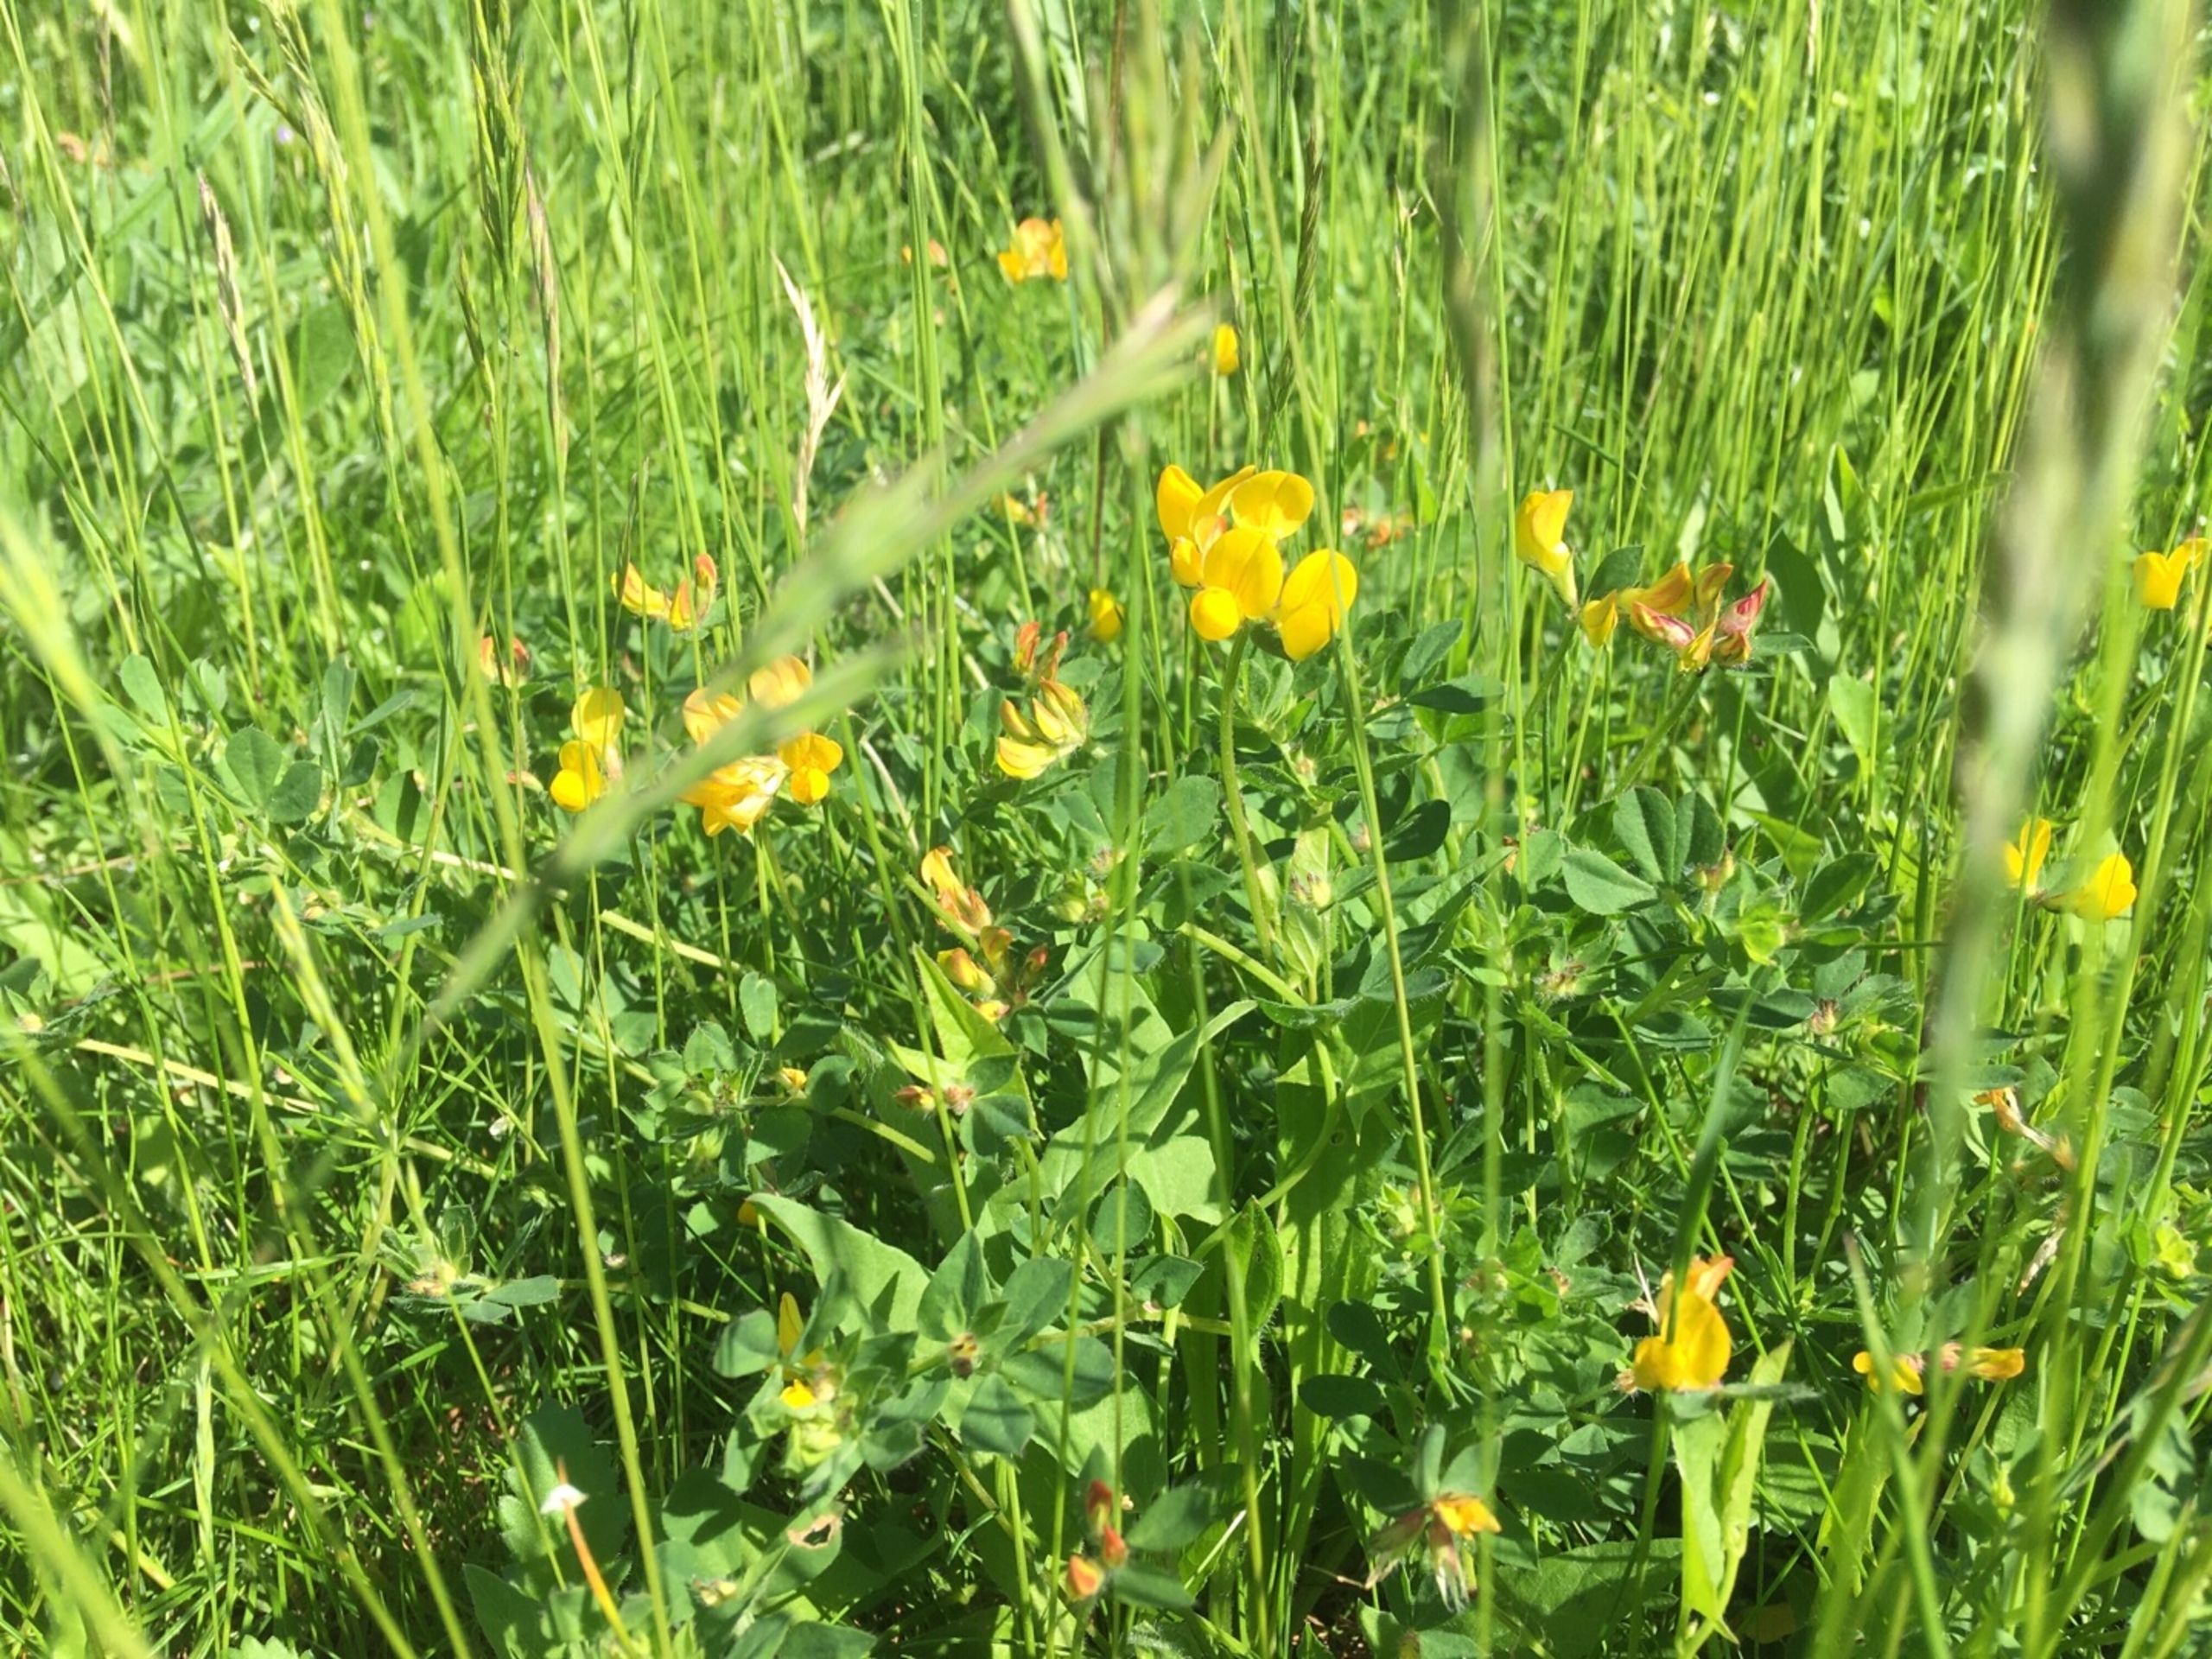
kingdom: Plantae
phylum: Tracheophyta
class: Magnoliopsida
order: Fabales
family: Fabaceae
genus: Lotus
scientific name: Lotus corniculatus
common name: Almindelig kællingetand
